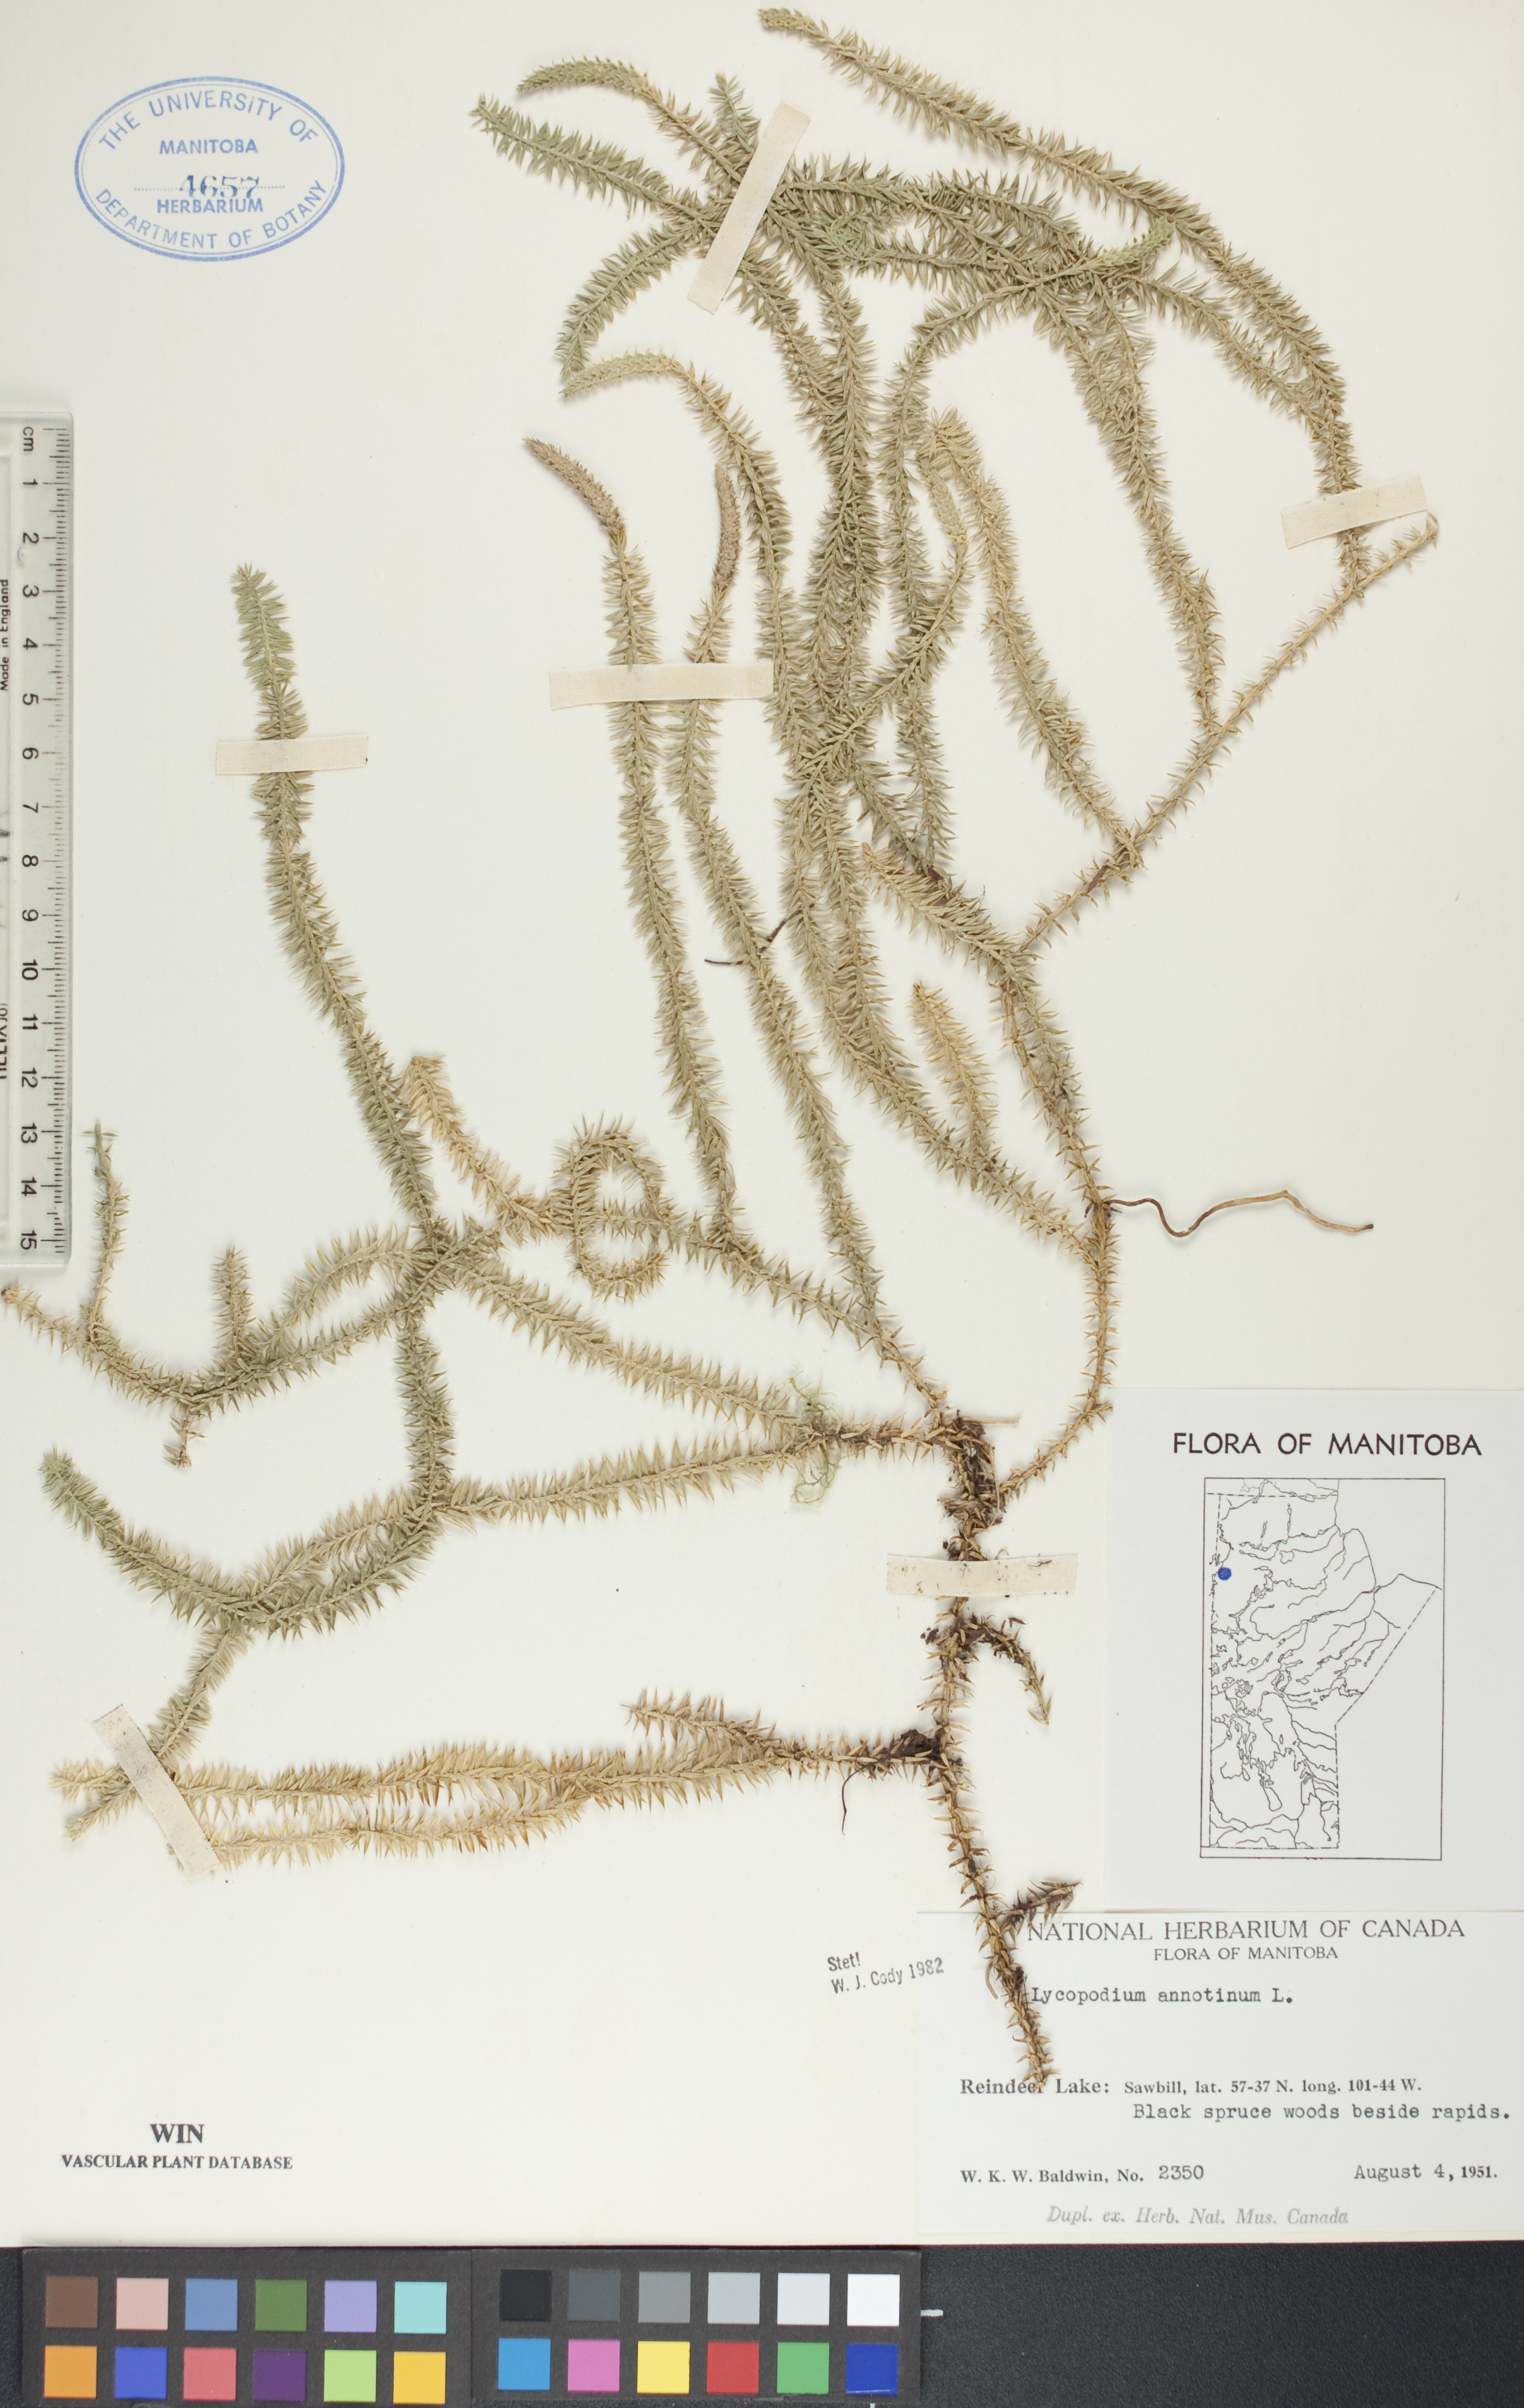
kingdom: Plantae
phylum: Tracheophyta
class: Lycopodiopsida
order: Lycopodiales
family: Lycopodiaceae
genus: Spinulum
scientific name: Spinulum annotinum
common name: Interrupted club-moss
